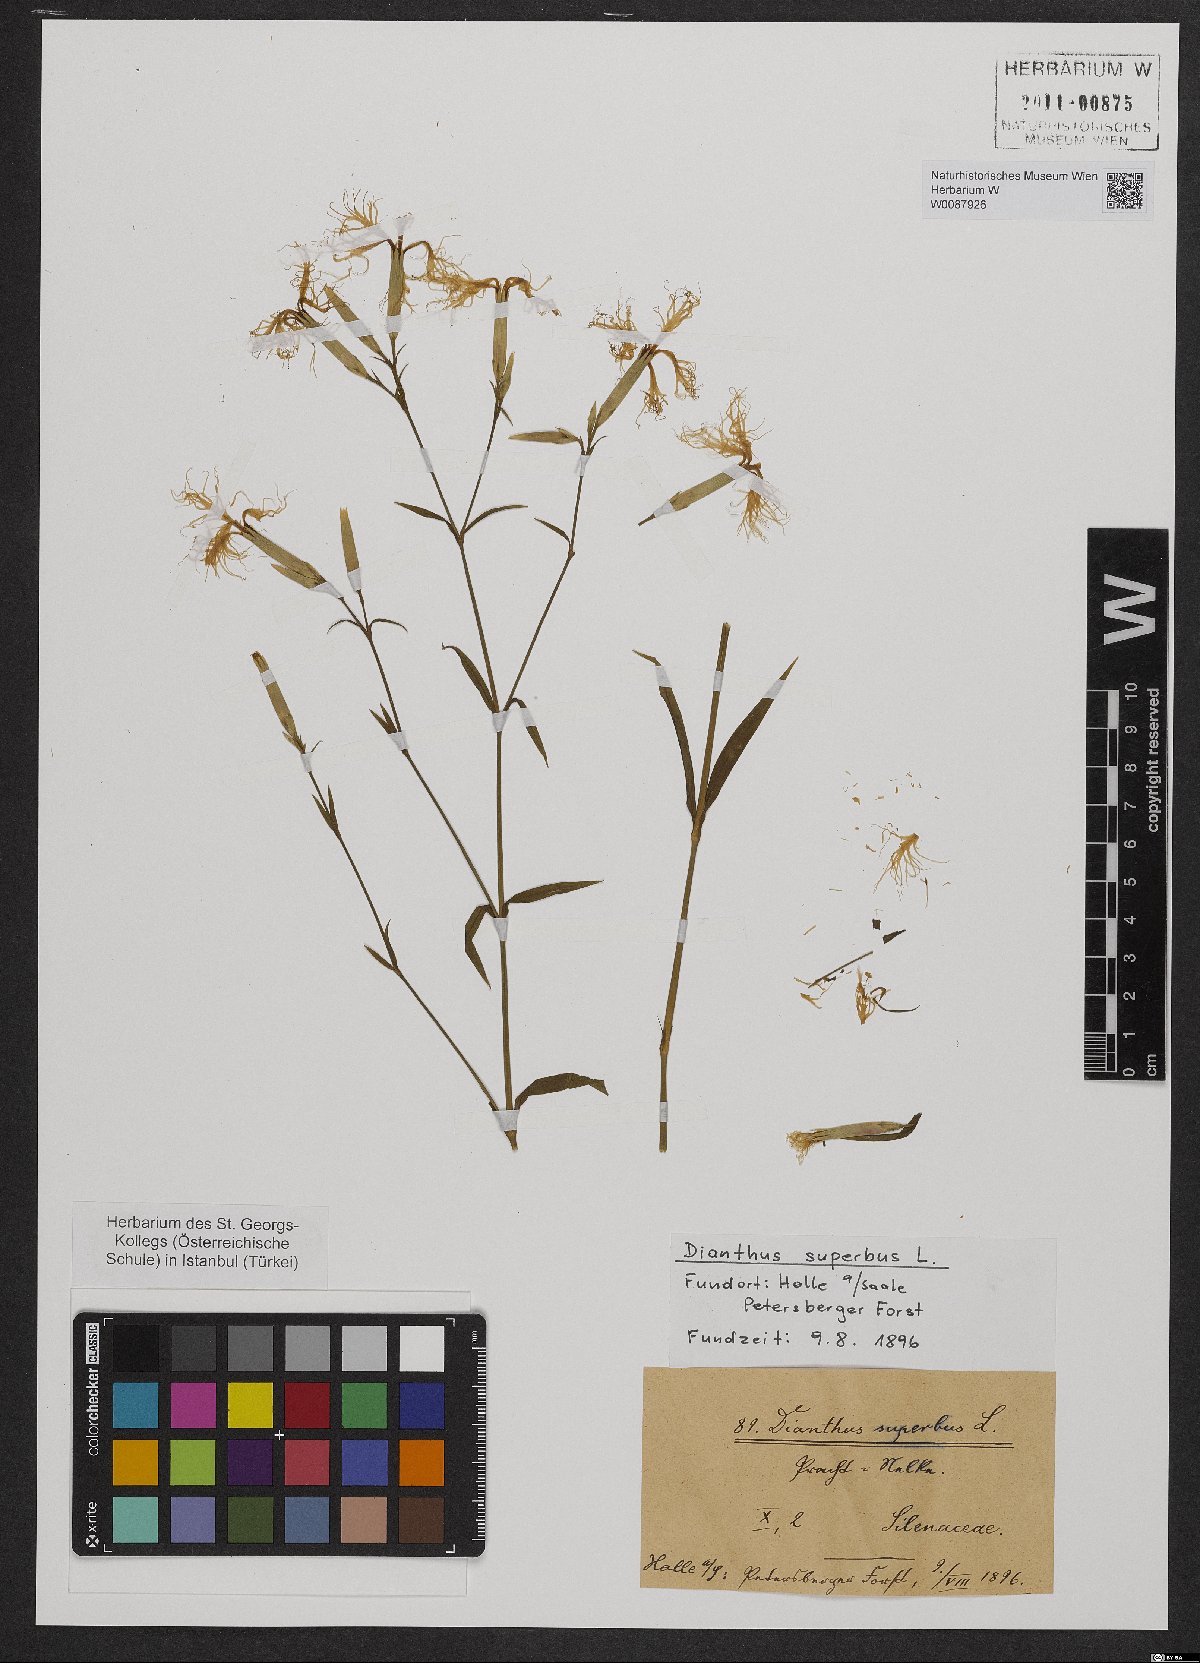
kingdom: Plantae
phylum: Tracheophyta
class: Magnoliopsida
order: Caryophyllales
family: Caryophyllaceae
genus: Dianthus
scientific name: Dianthus superbus
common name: Fringed pink
